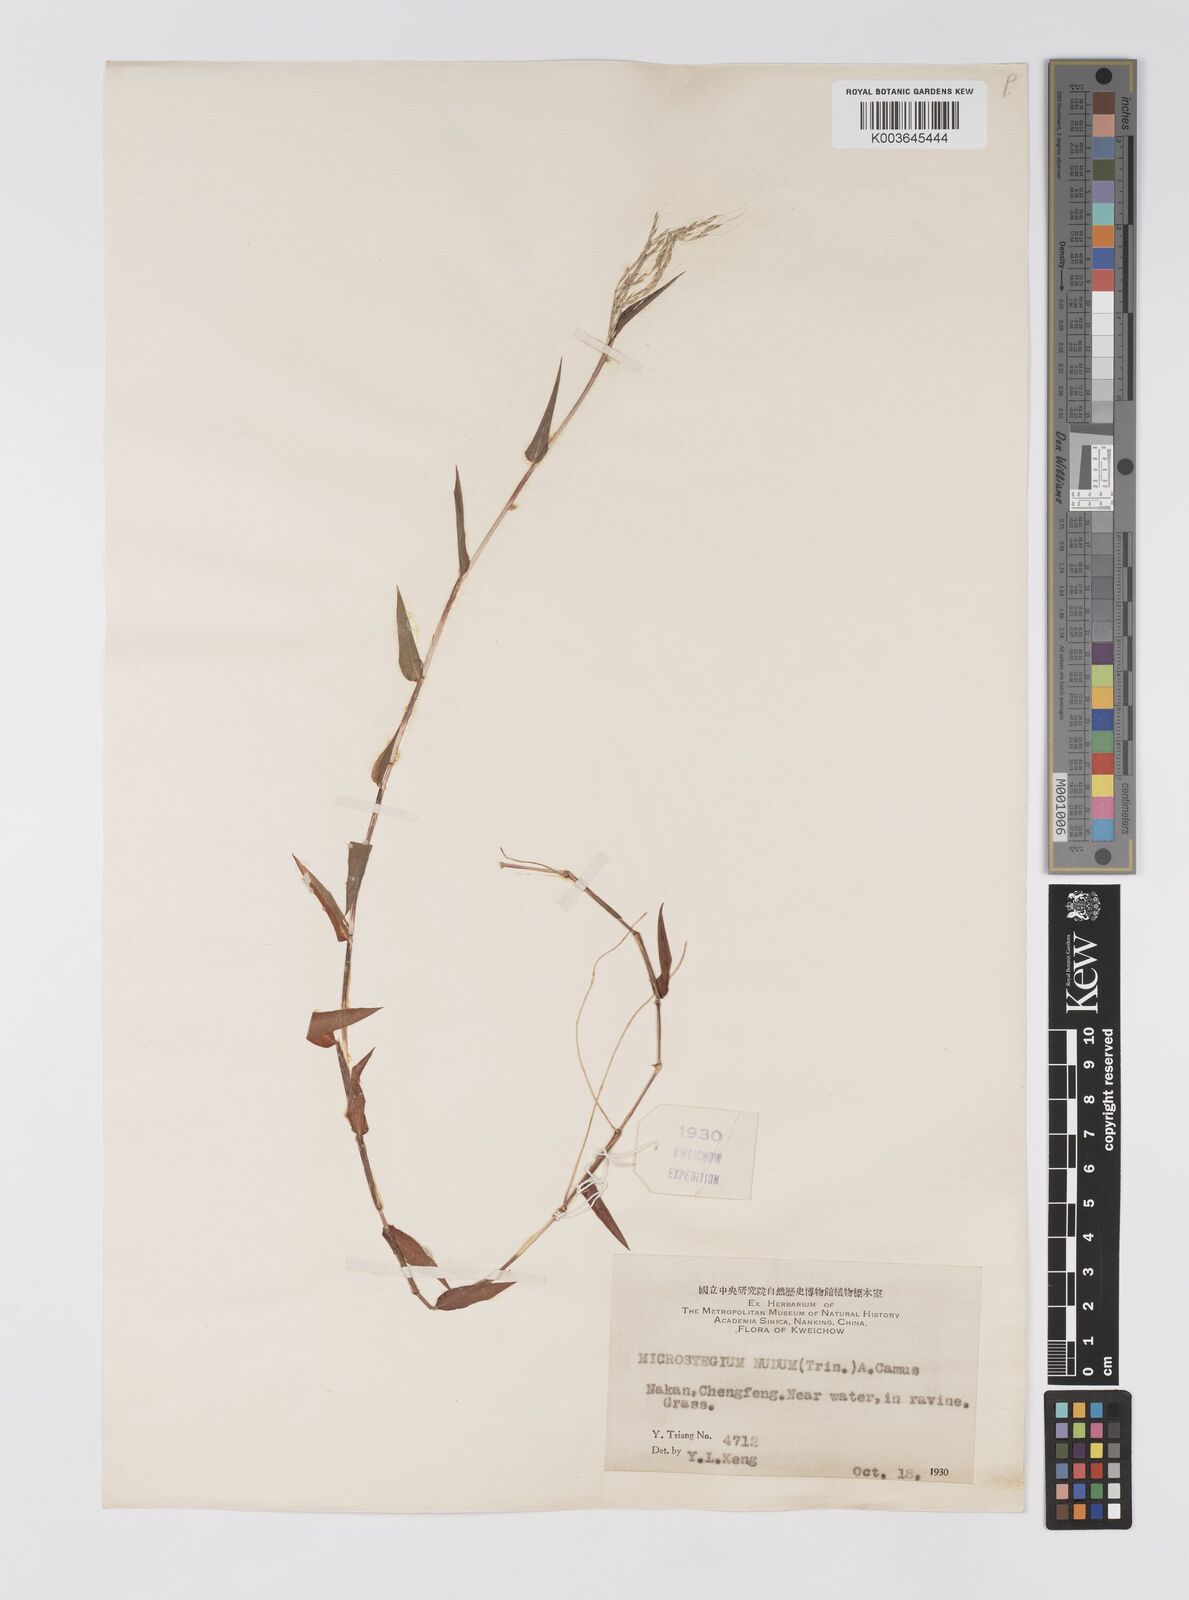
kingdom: Plantae
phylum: Tracheophyta
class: Liliopsida
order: Poales
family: Poaceae
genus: Microstegium
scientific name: Microstegium nudum
